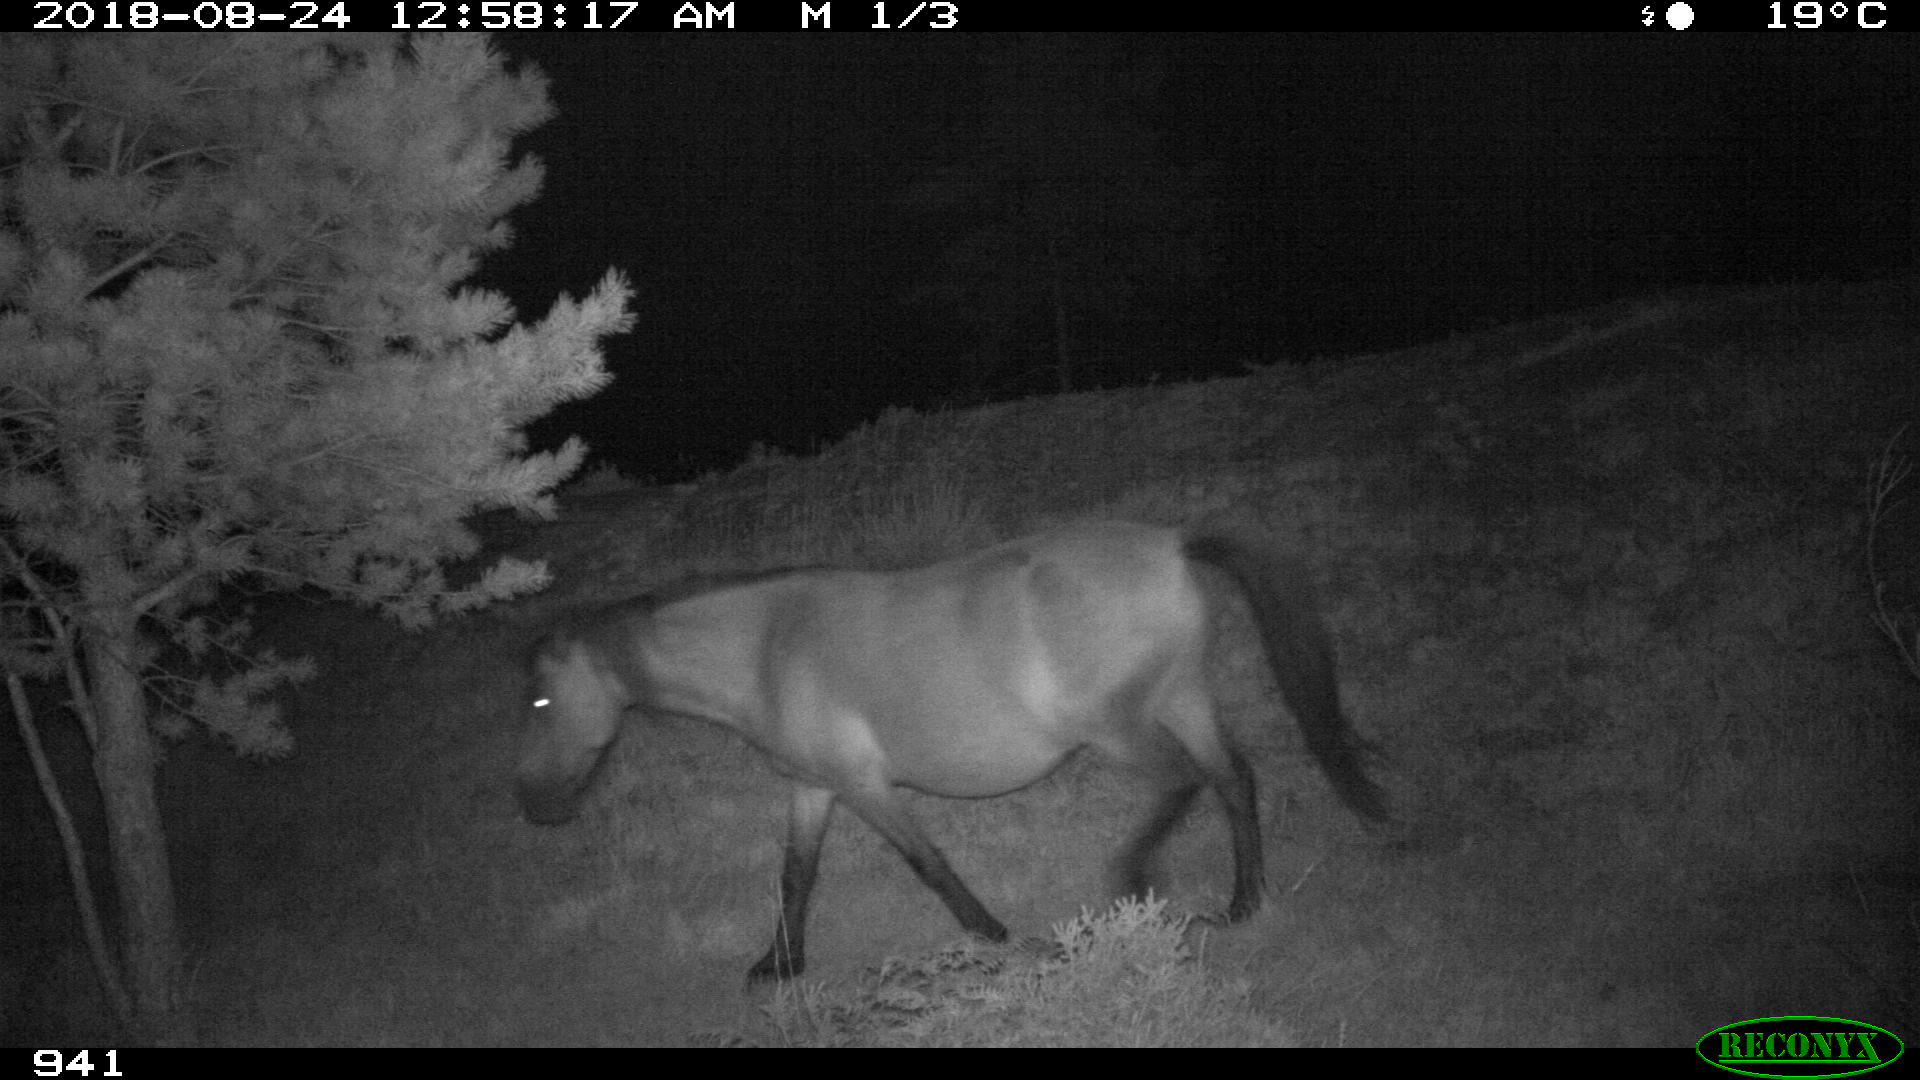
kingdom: Animalia
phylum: Chordata
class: Mammalia
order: Perissodactyla
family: Equidae
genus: Equus
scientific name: Equus caballus
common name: Horse
